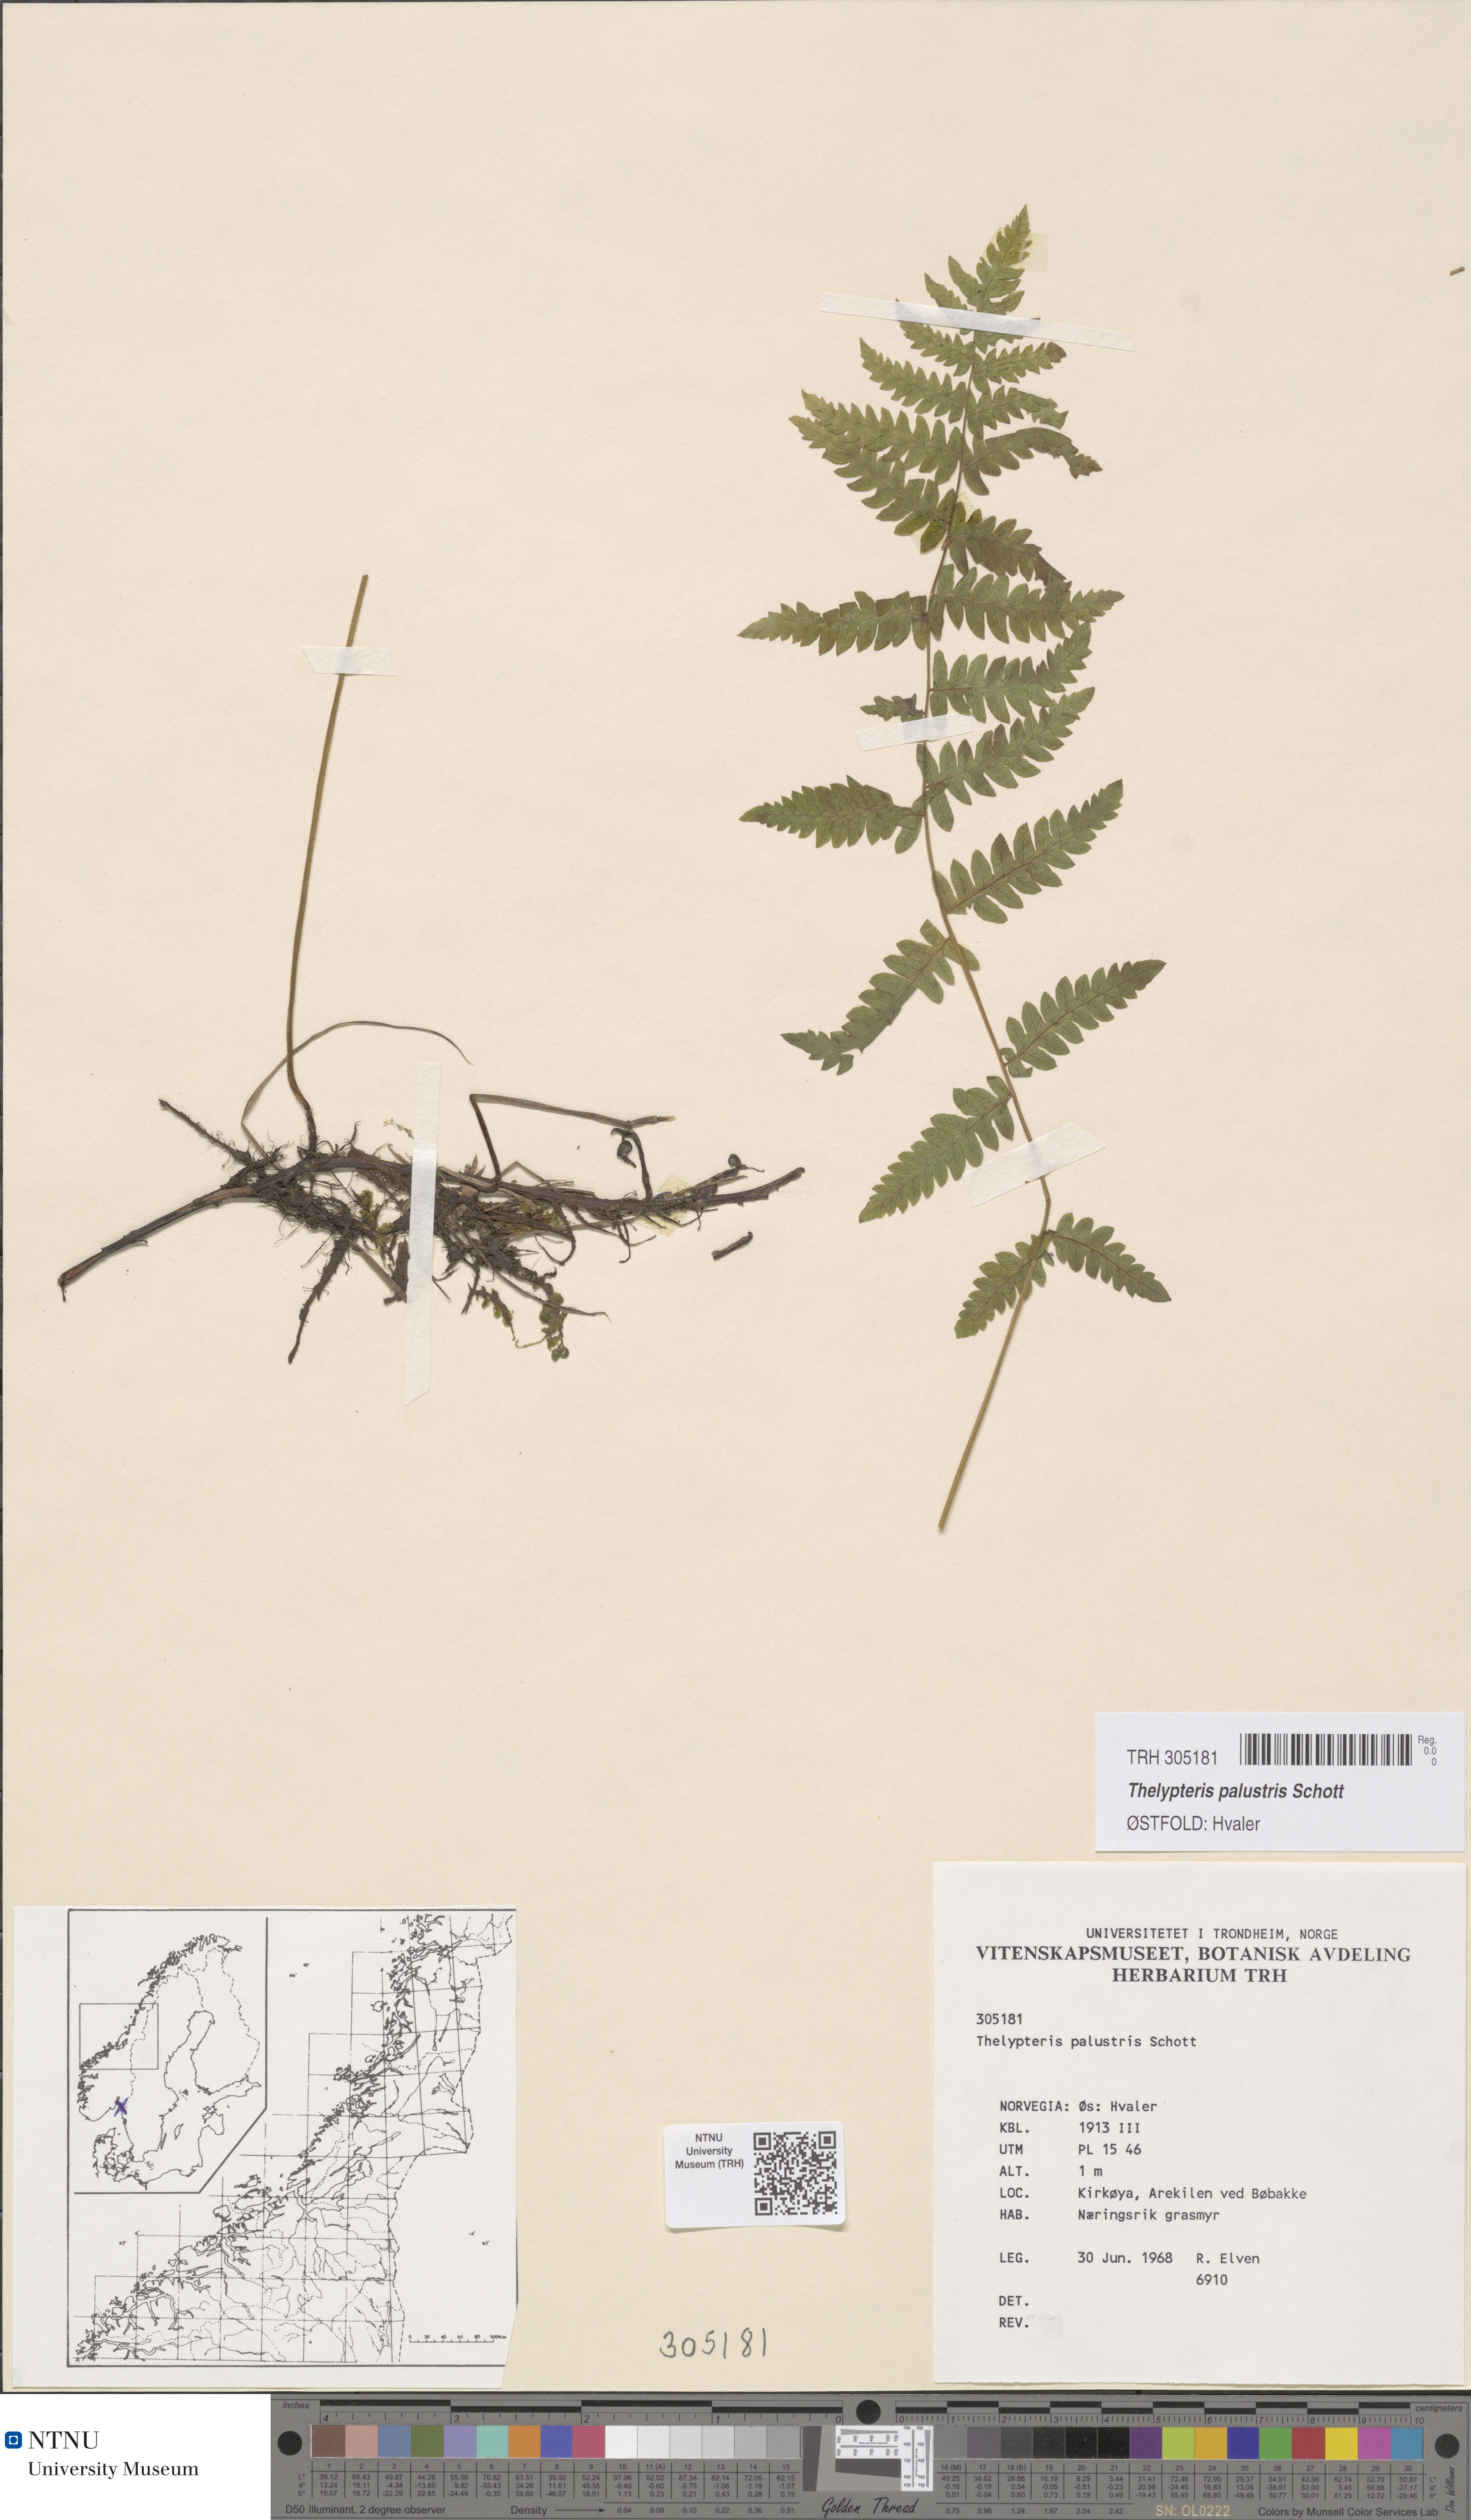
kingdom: Plantae
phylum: Tracheophyta
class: Polypodiopsida
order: Polypodiales
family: Thelypteridaceae
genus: Thelypteris
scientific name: Thelypteris palustris
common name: Marsh fern
